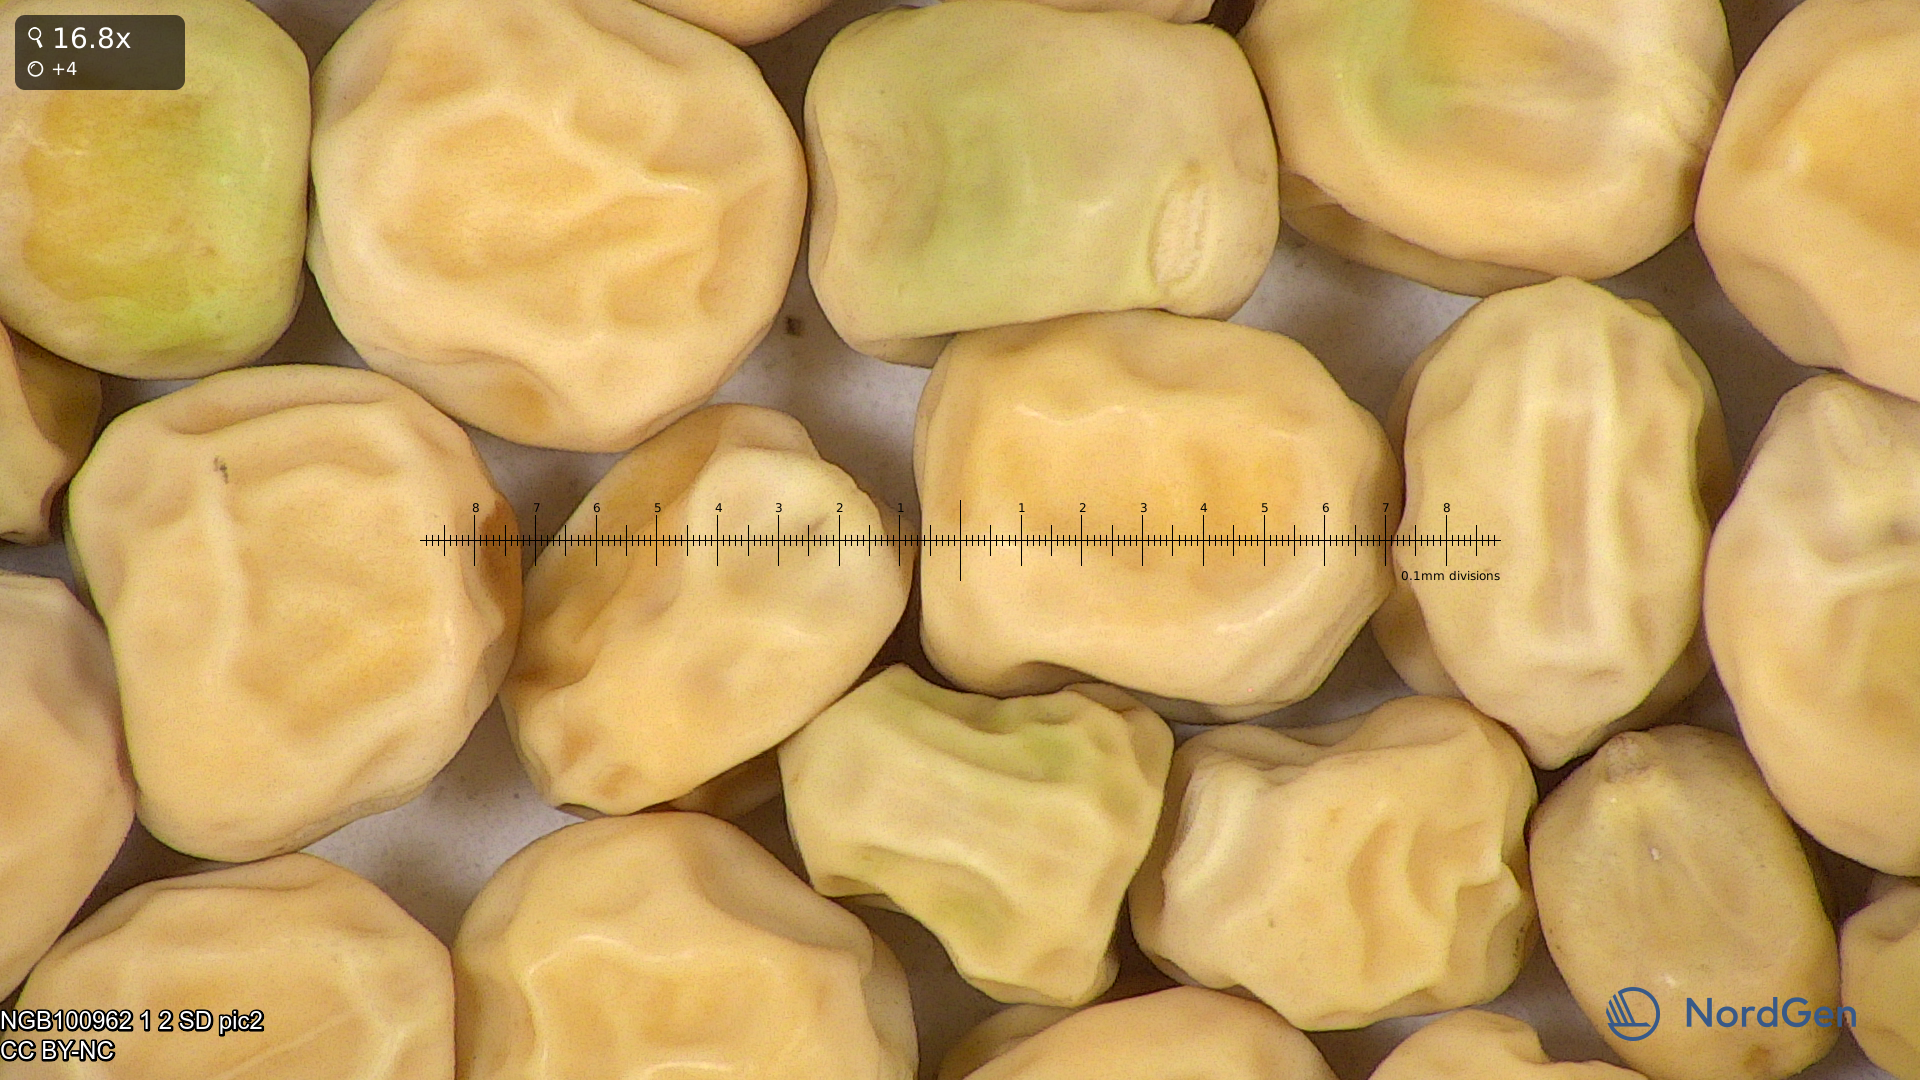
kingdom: Plantae
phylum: Tracheophyta
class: Magnoliopsida
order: Fabales
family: Fabaceae
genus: Lathyrus
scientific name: Lathyrus oleraceus
